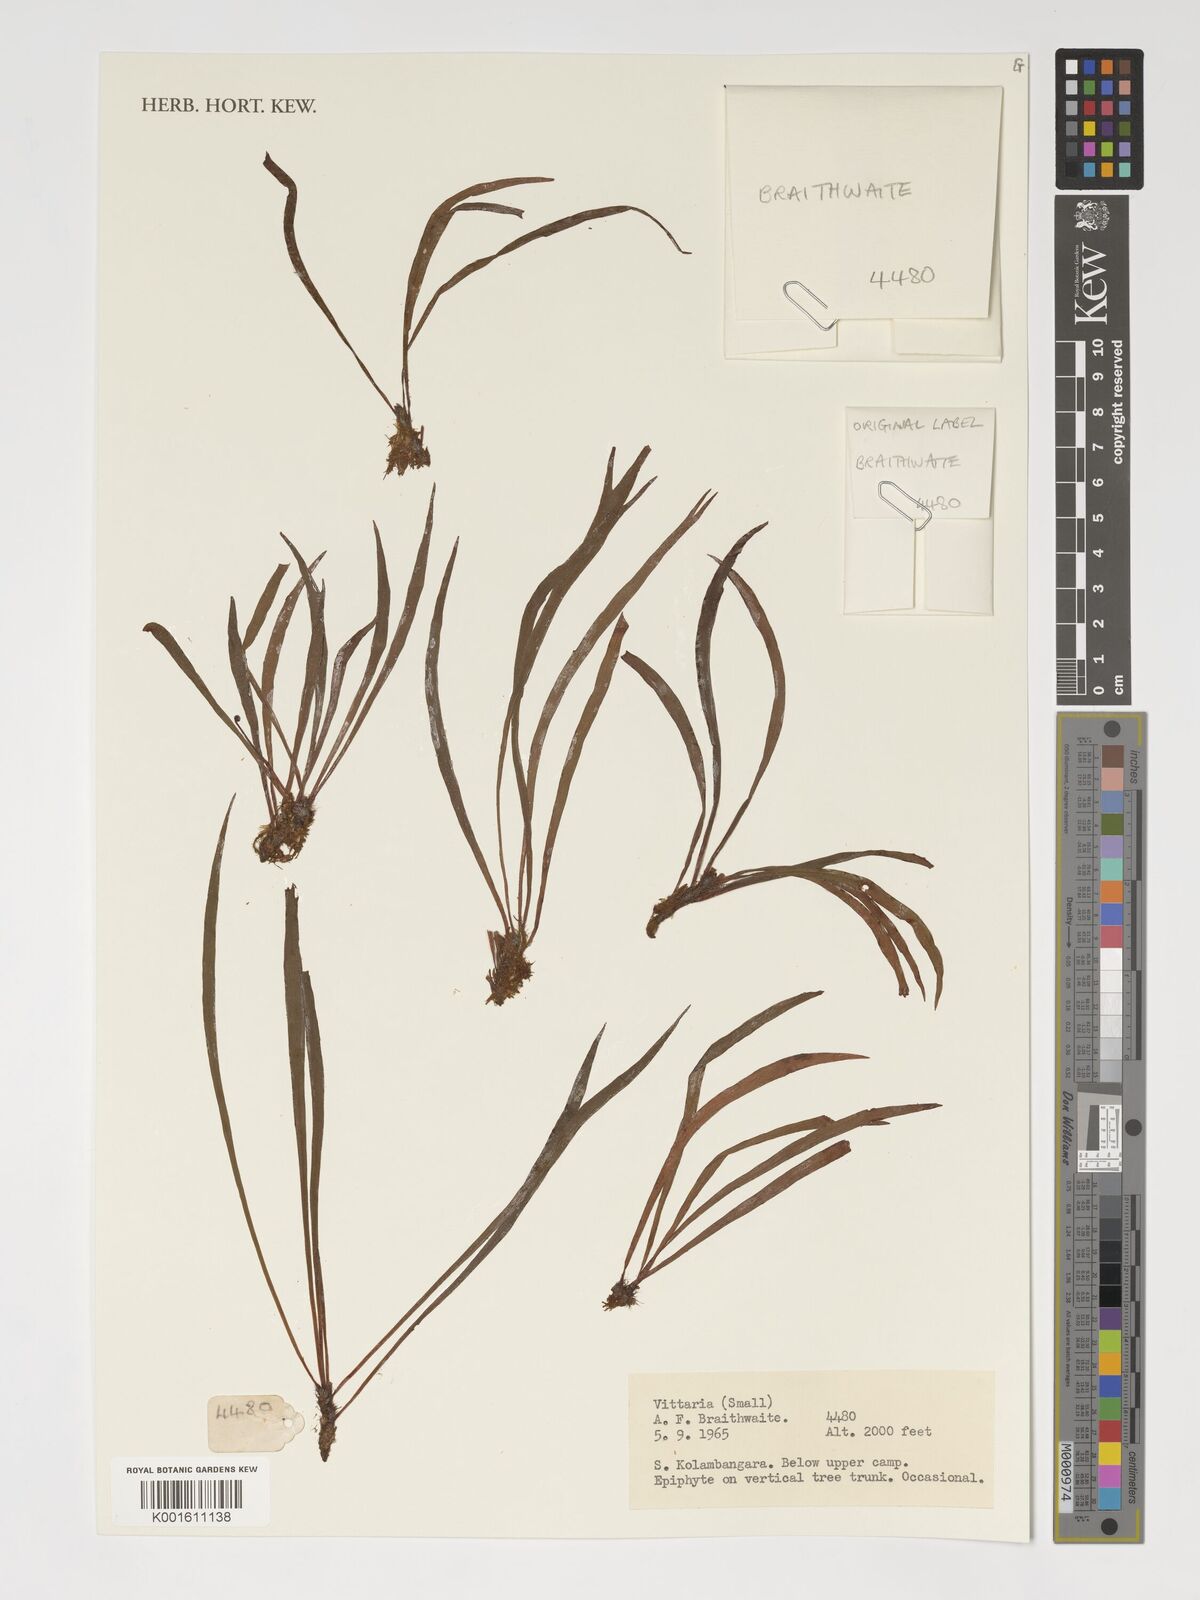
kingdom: Plantae
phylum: Tracheophyta
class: Polypodiopsida
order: Polypodiales
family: Pteridaceae
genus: Vittaria
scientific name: Vittaria
